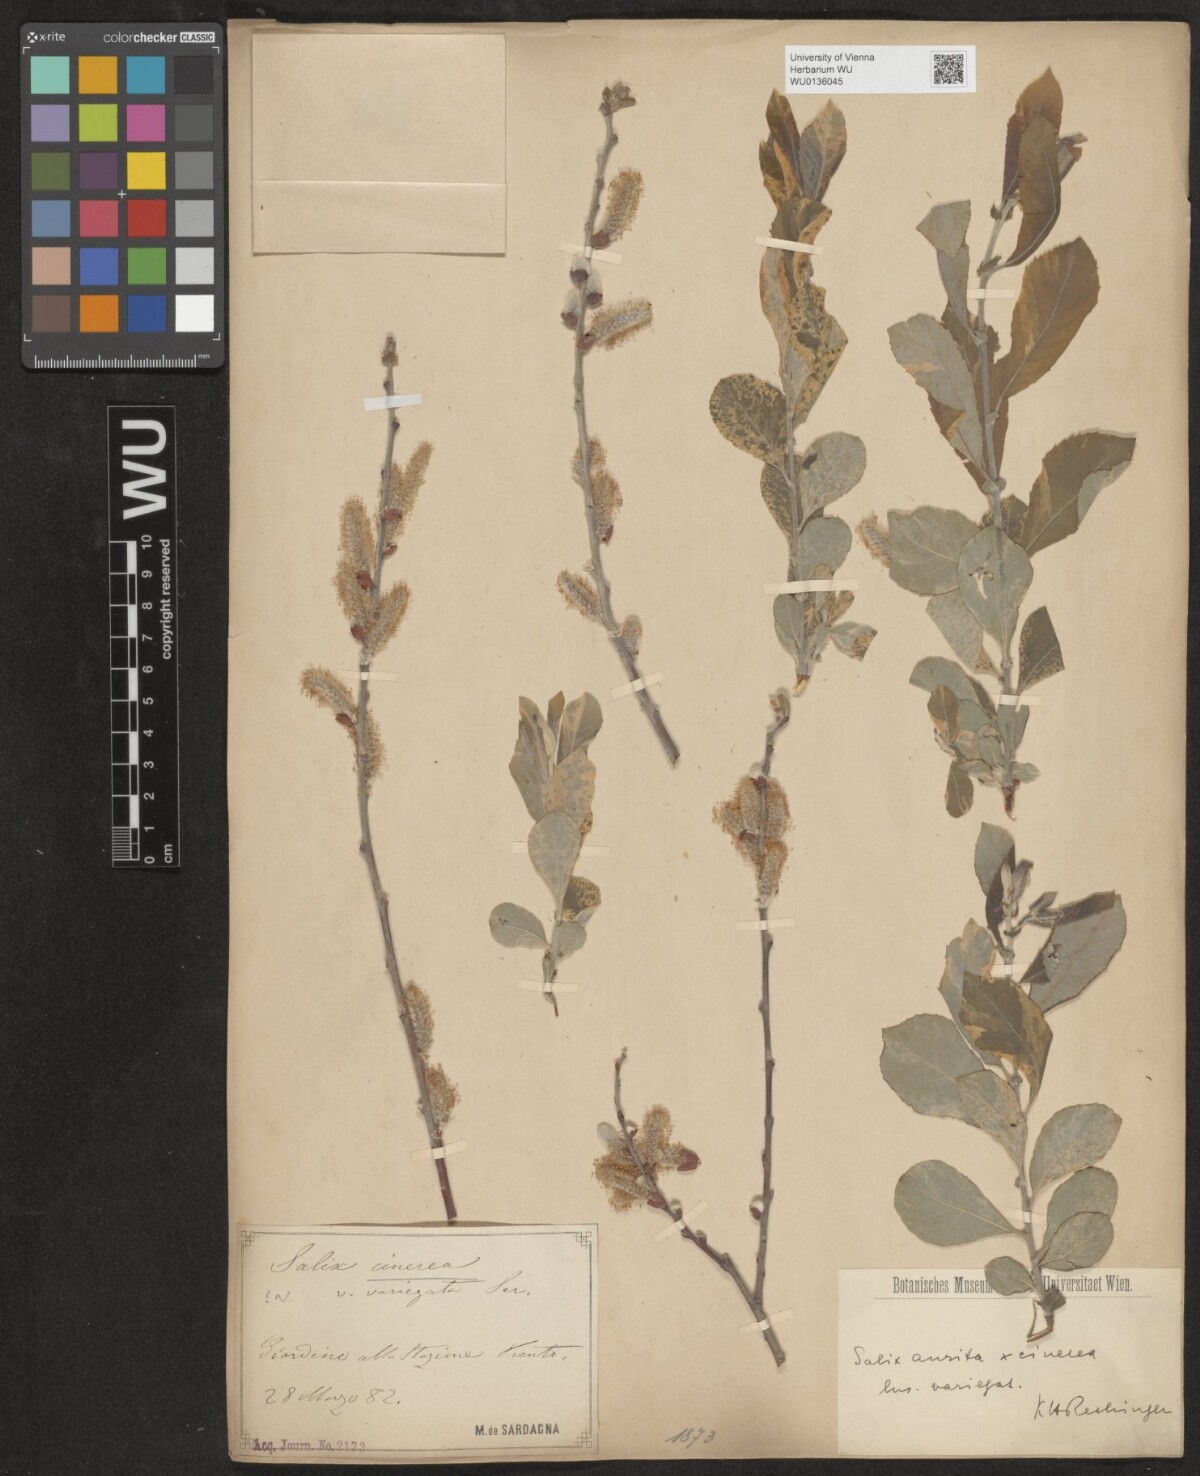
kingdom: Plantae
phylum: Tracheophyta
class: Magnoliopsida
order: Malpighiales
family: Salicaceae
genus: Salix
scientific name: Salix cinerea
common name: Common sallow
